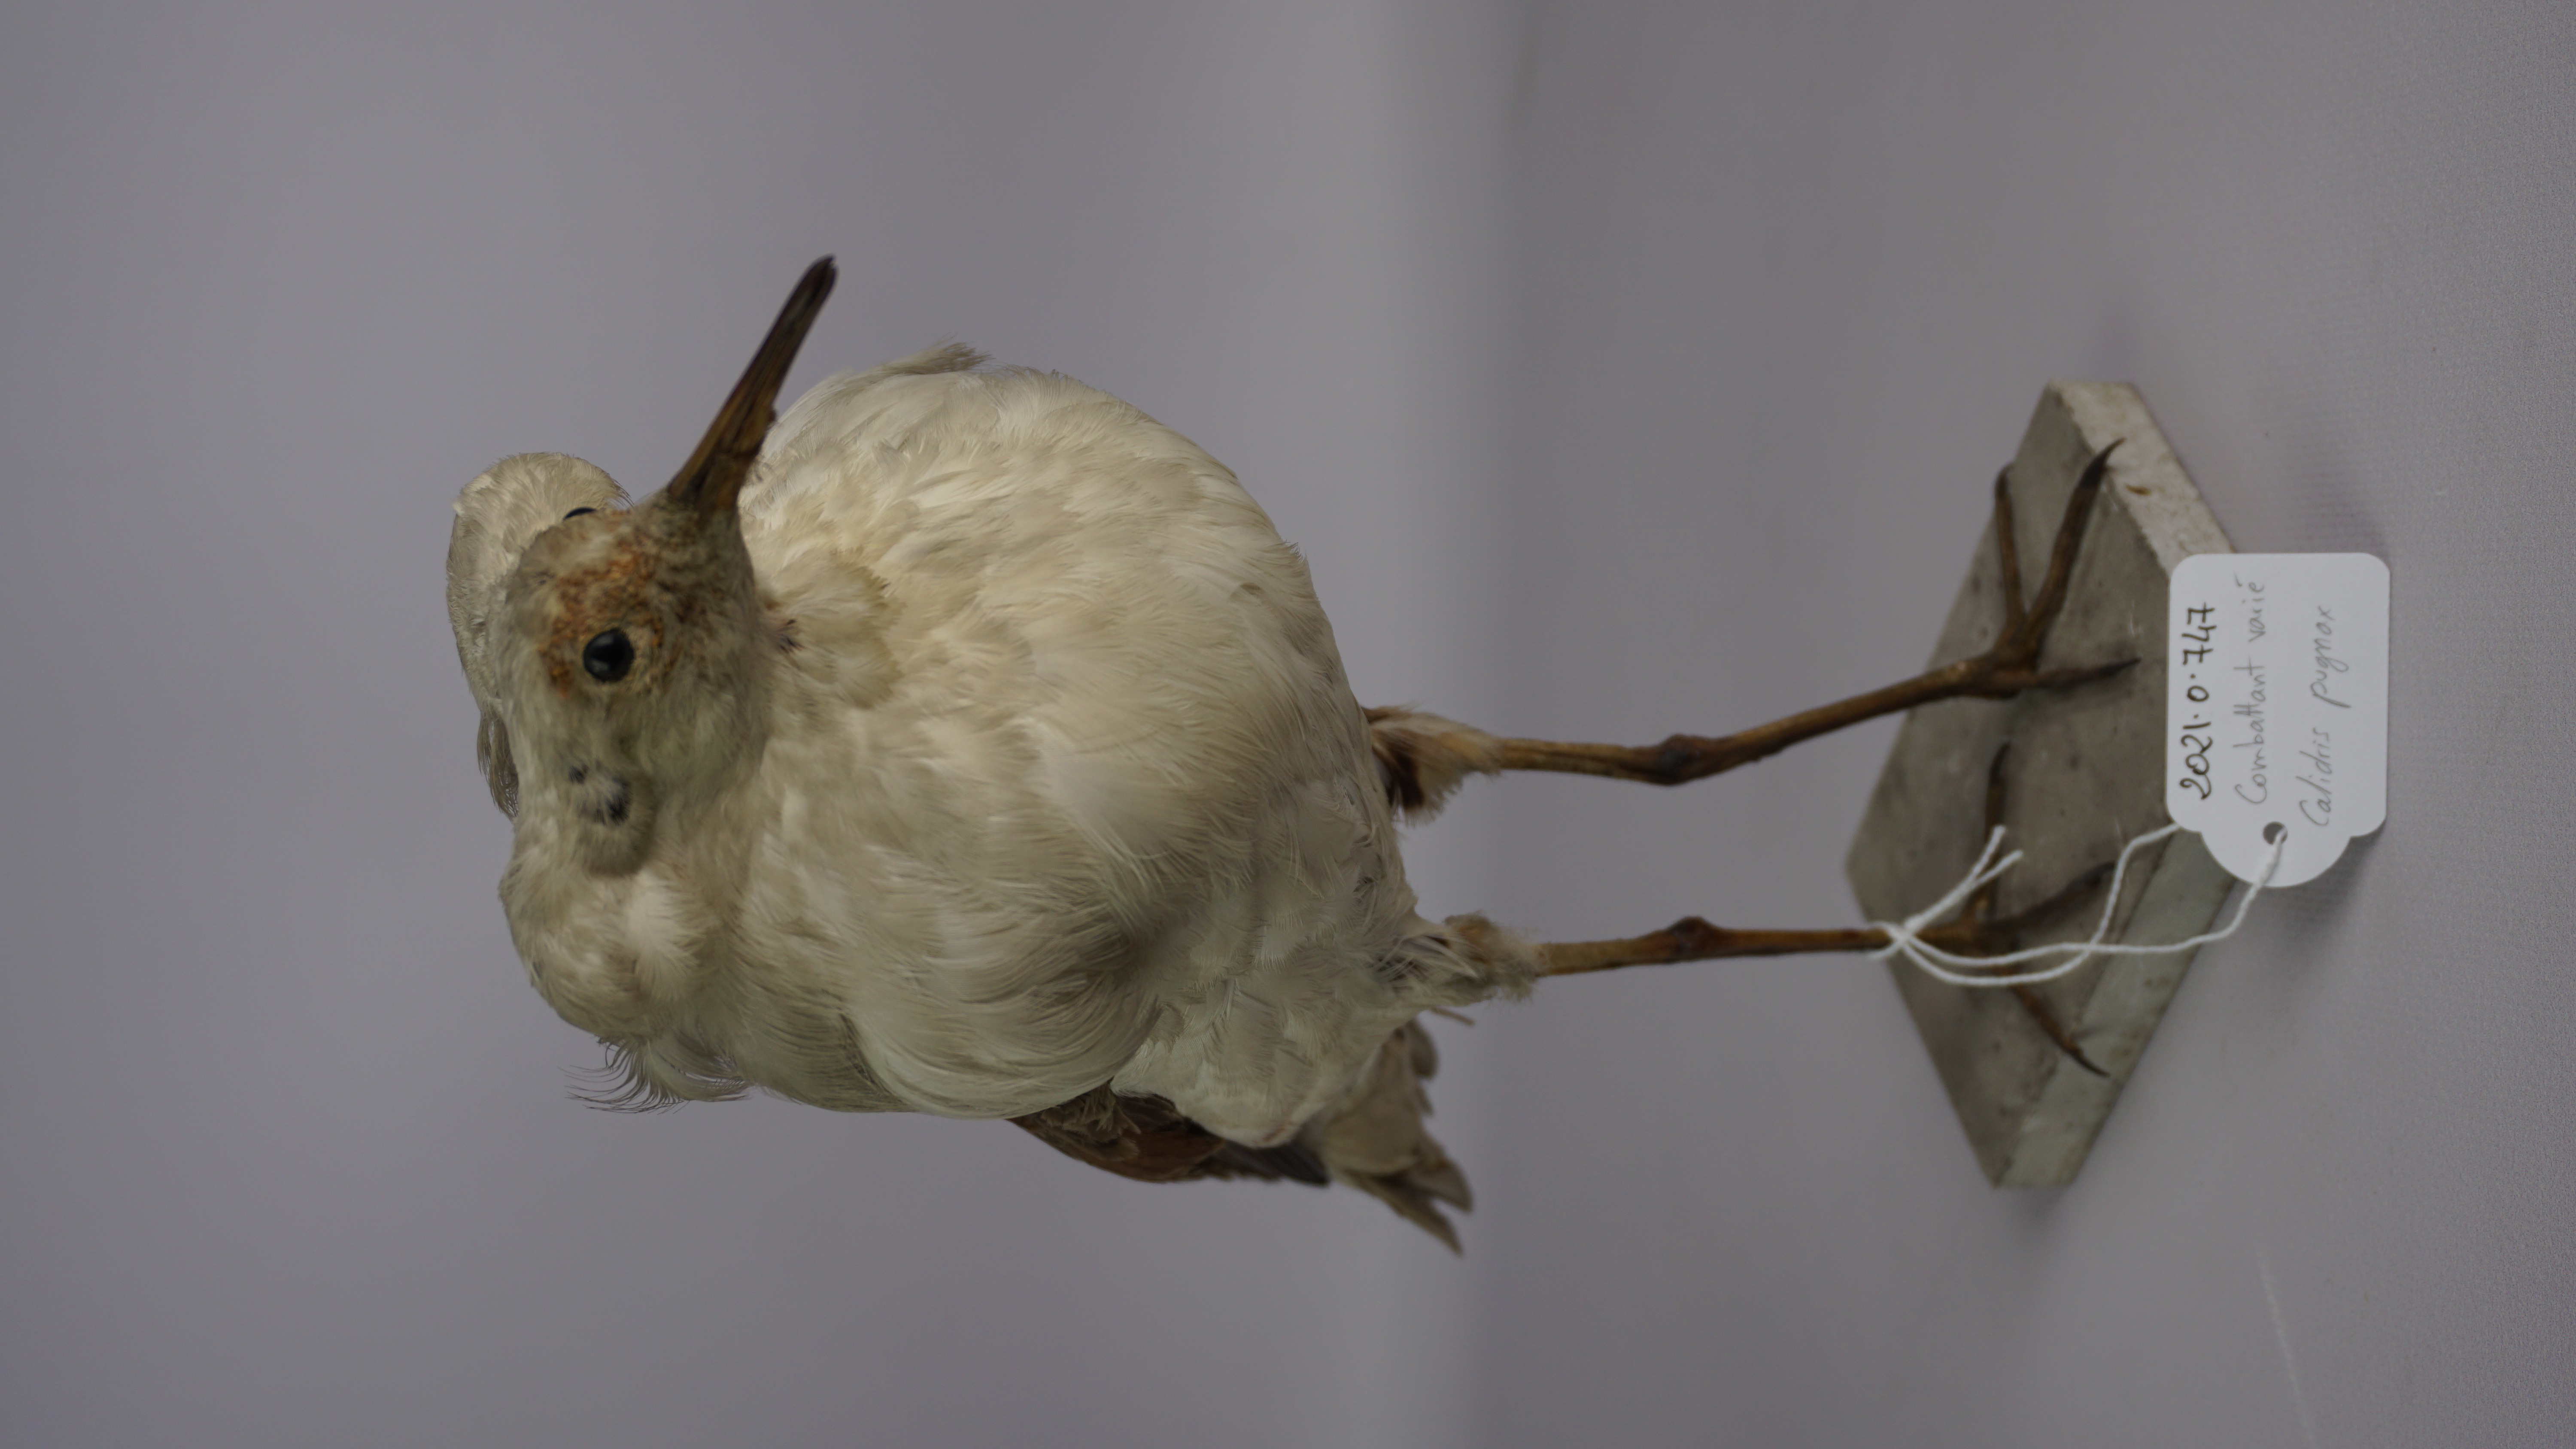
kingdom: Animalia
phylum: Chordata
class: Aves
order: Charadriiformes
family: Scolopacidae
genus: Calidris
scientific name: Calidris pugnax
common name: Ruff
